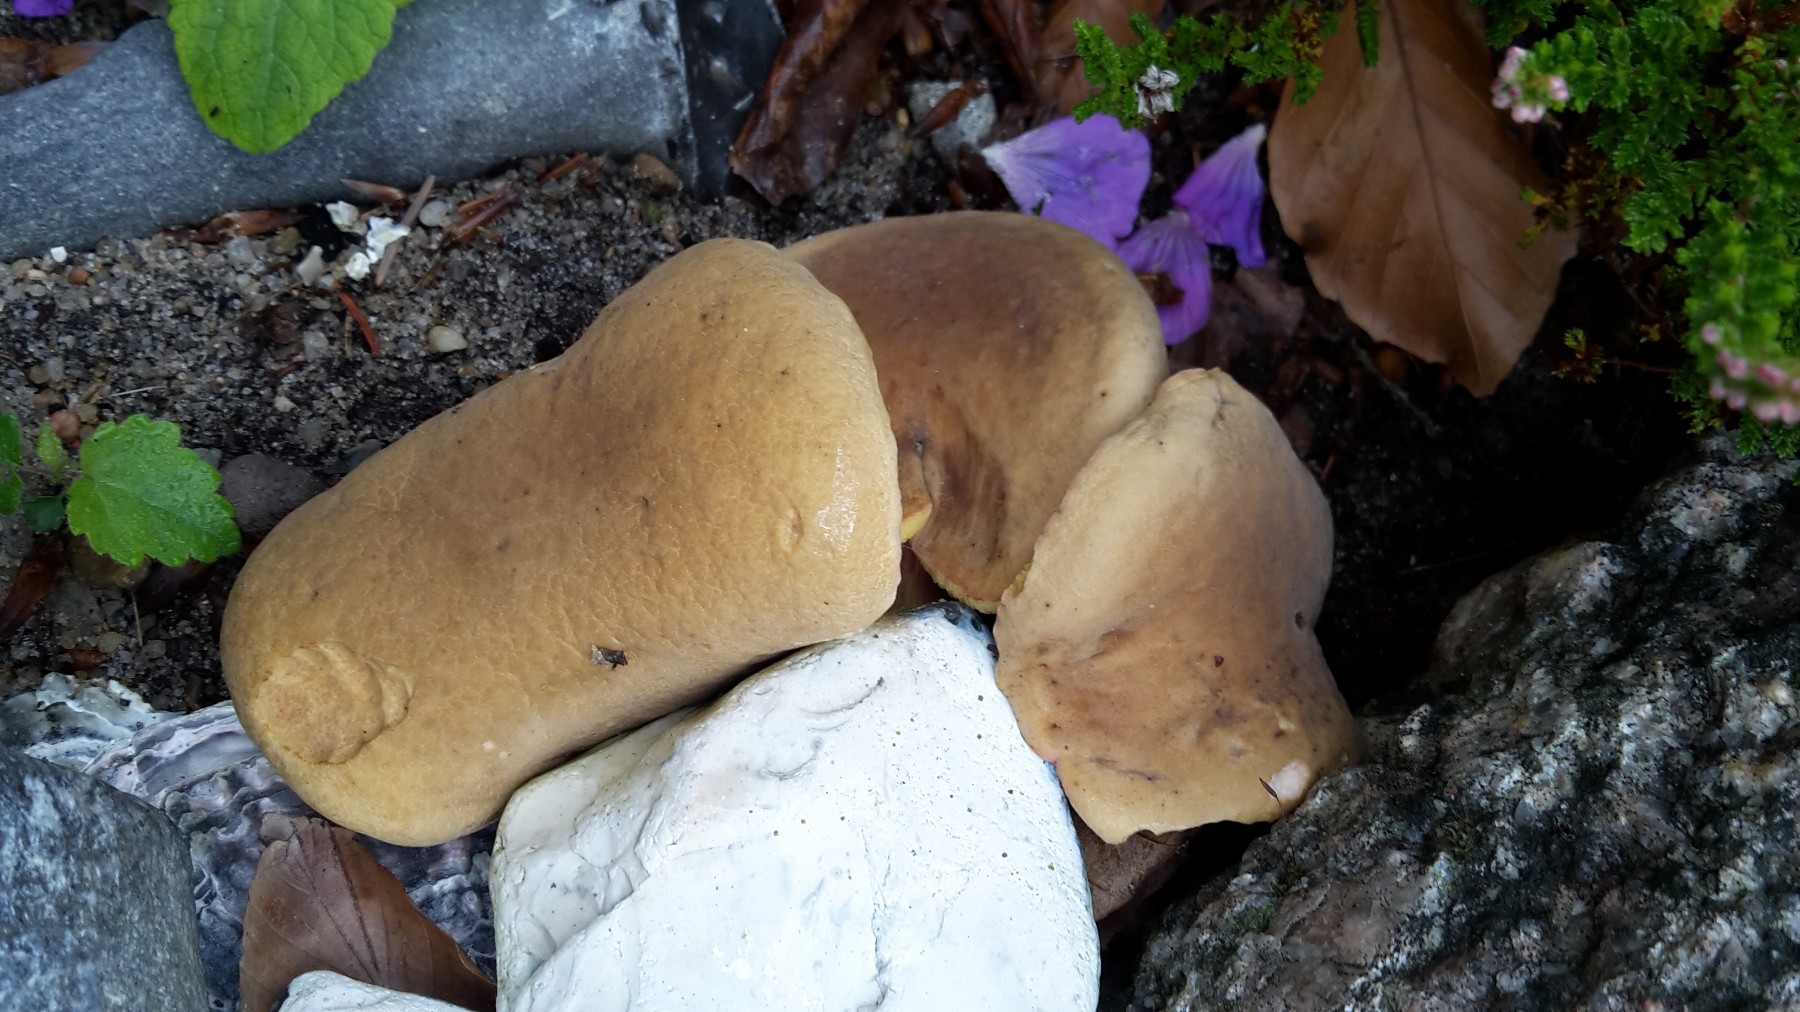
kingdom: Fungi
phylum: Basidiomycota
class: Agaricomycetes
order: Boletales
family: Boletaceae
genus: Hortiboletus
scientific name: Hortiboletus bubalinus
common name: aurora-rørhat
